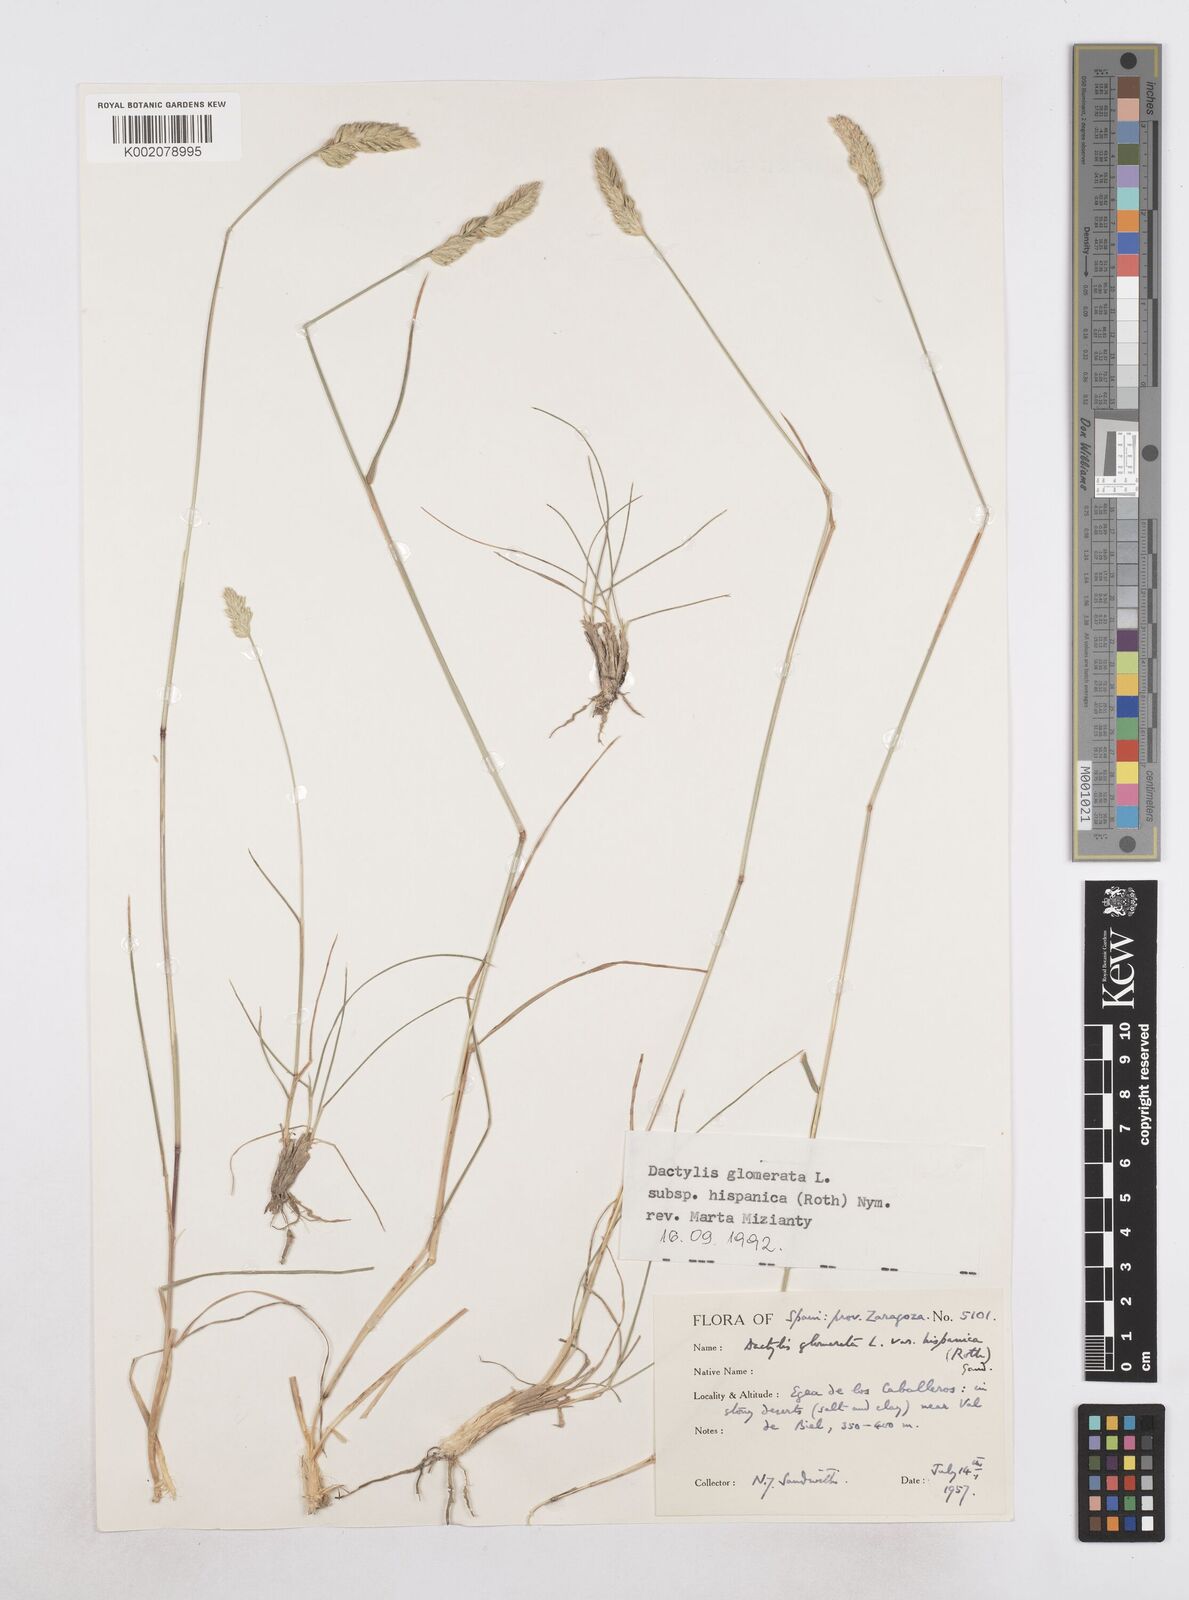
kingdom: Plantae
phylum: Tracheophyta
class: Liliopsida
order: Poales
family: Poaceae
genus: Dactylis
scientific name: Dactylis glomerata
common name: Orchardgrass
